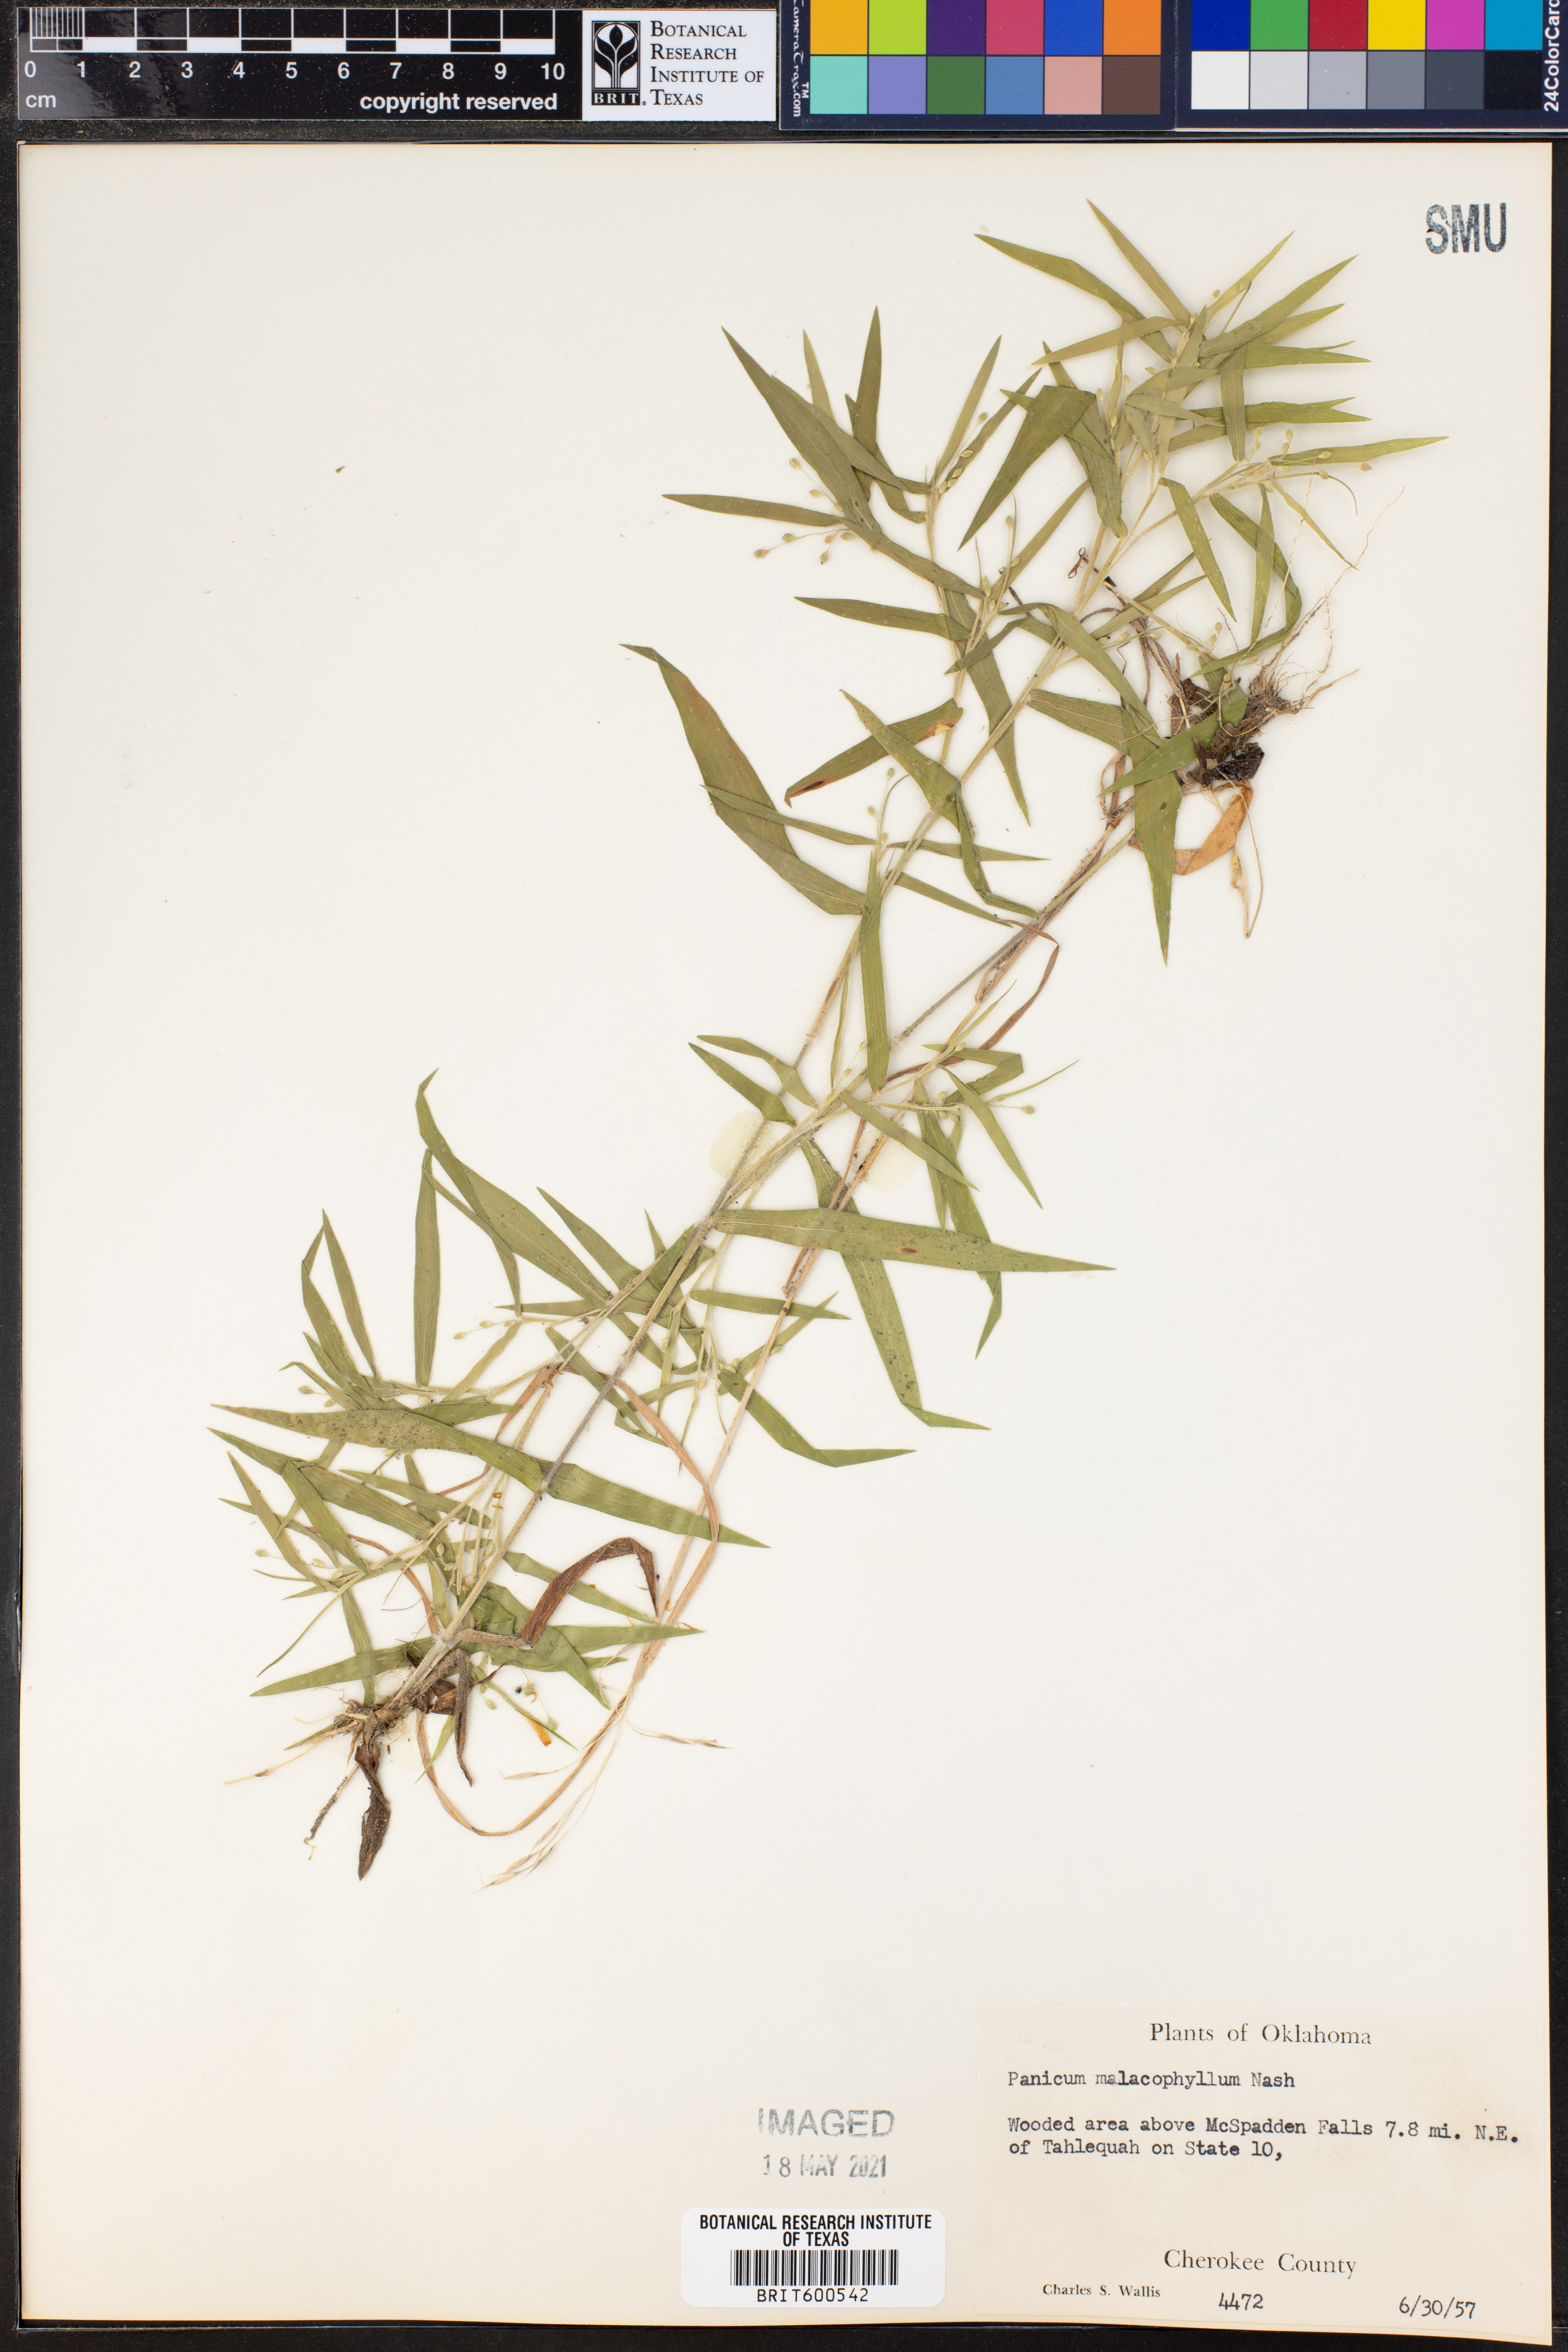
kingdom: Plantae
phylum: Tracheophyta
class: Liliopsida
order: Poales
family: Poaceae
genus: Dichanthelium
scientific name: Dichanthelium malacophyllum
